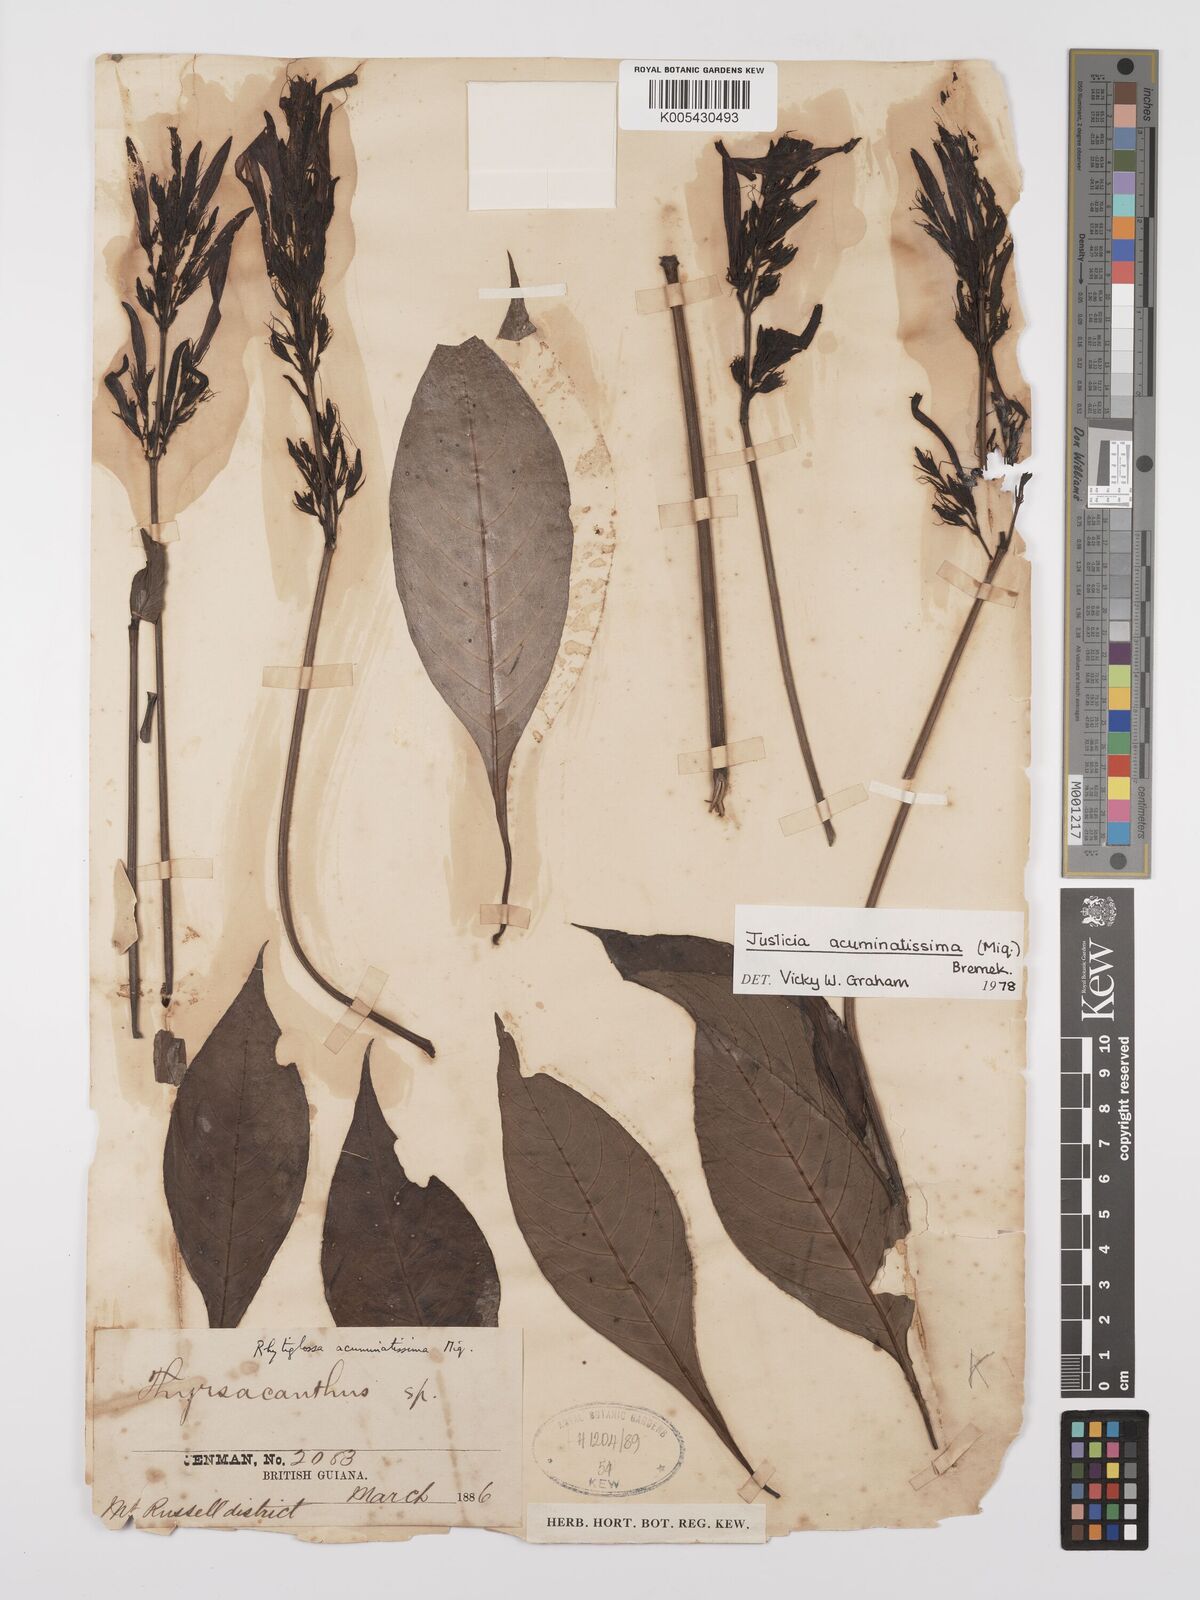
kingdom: Plantae
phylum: Tracheophyta
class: Magnoliopsida
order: Lamiales
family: Acanthaceae
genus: Dianthera
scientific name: Dianthera calycina
